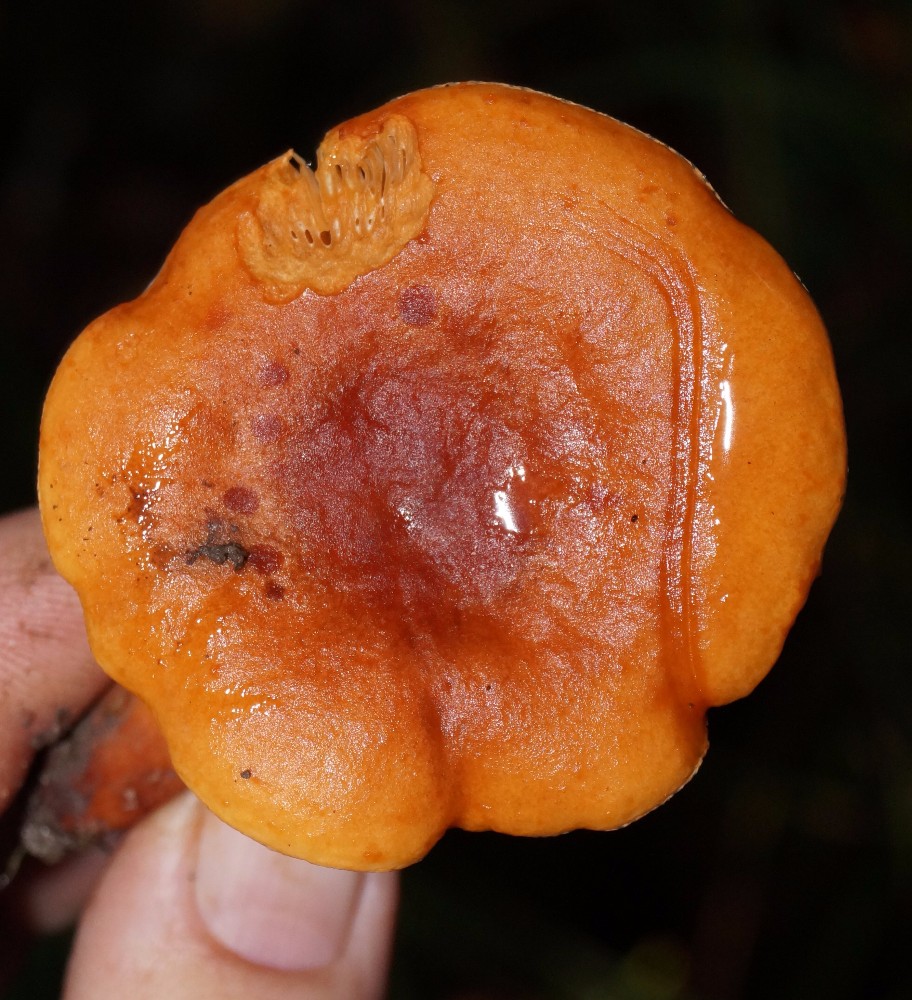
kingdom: Fungi
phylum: Basidiomycota
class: Agaricomycetes
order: Russulales
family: Russulaceae
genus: Lactarius
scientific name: Lactarius fulvissimus
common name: ræve-mælkehat
